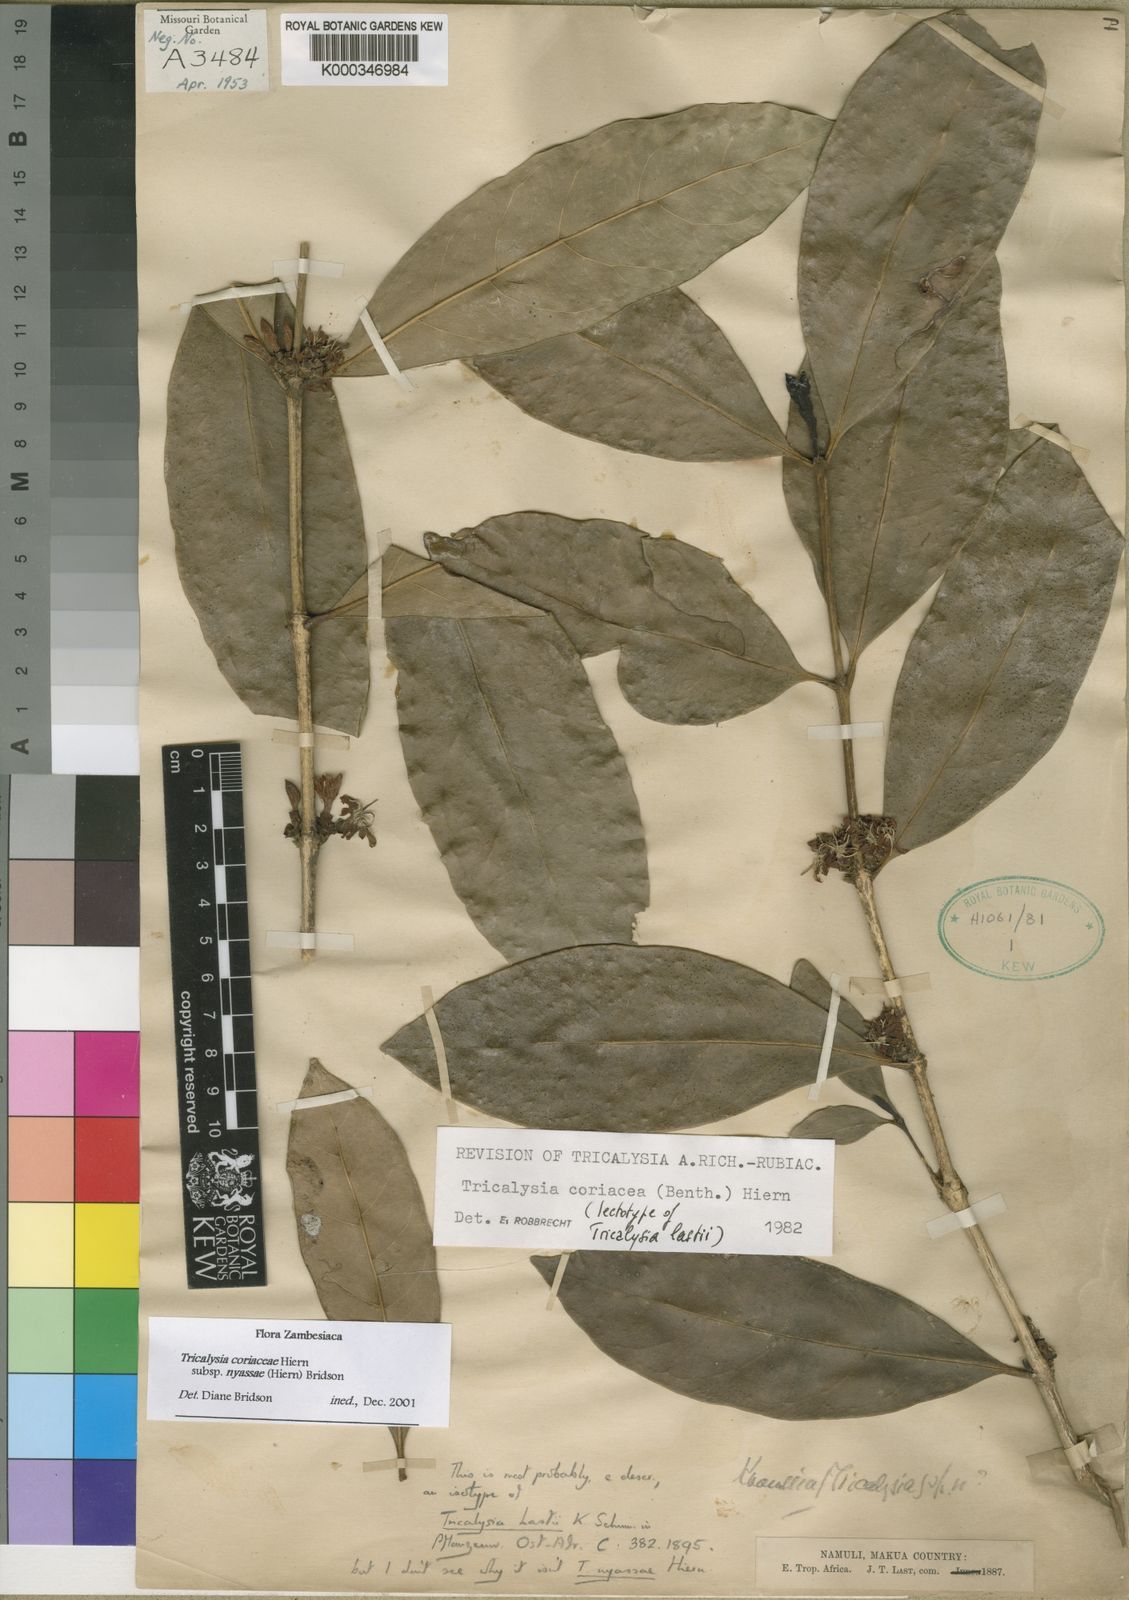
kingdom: Plantae
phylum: Tracheophyta
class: Magnoliopsida
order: Gentianales
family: Rubiaceae
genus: Tricalysia
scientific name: Tricalysia coriacea
